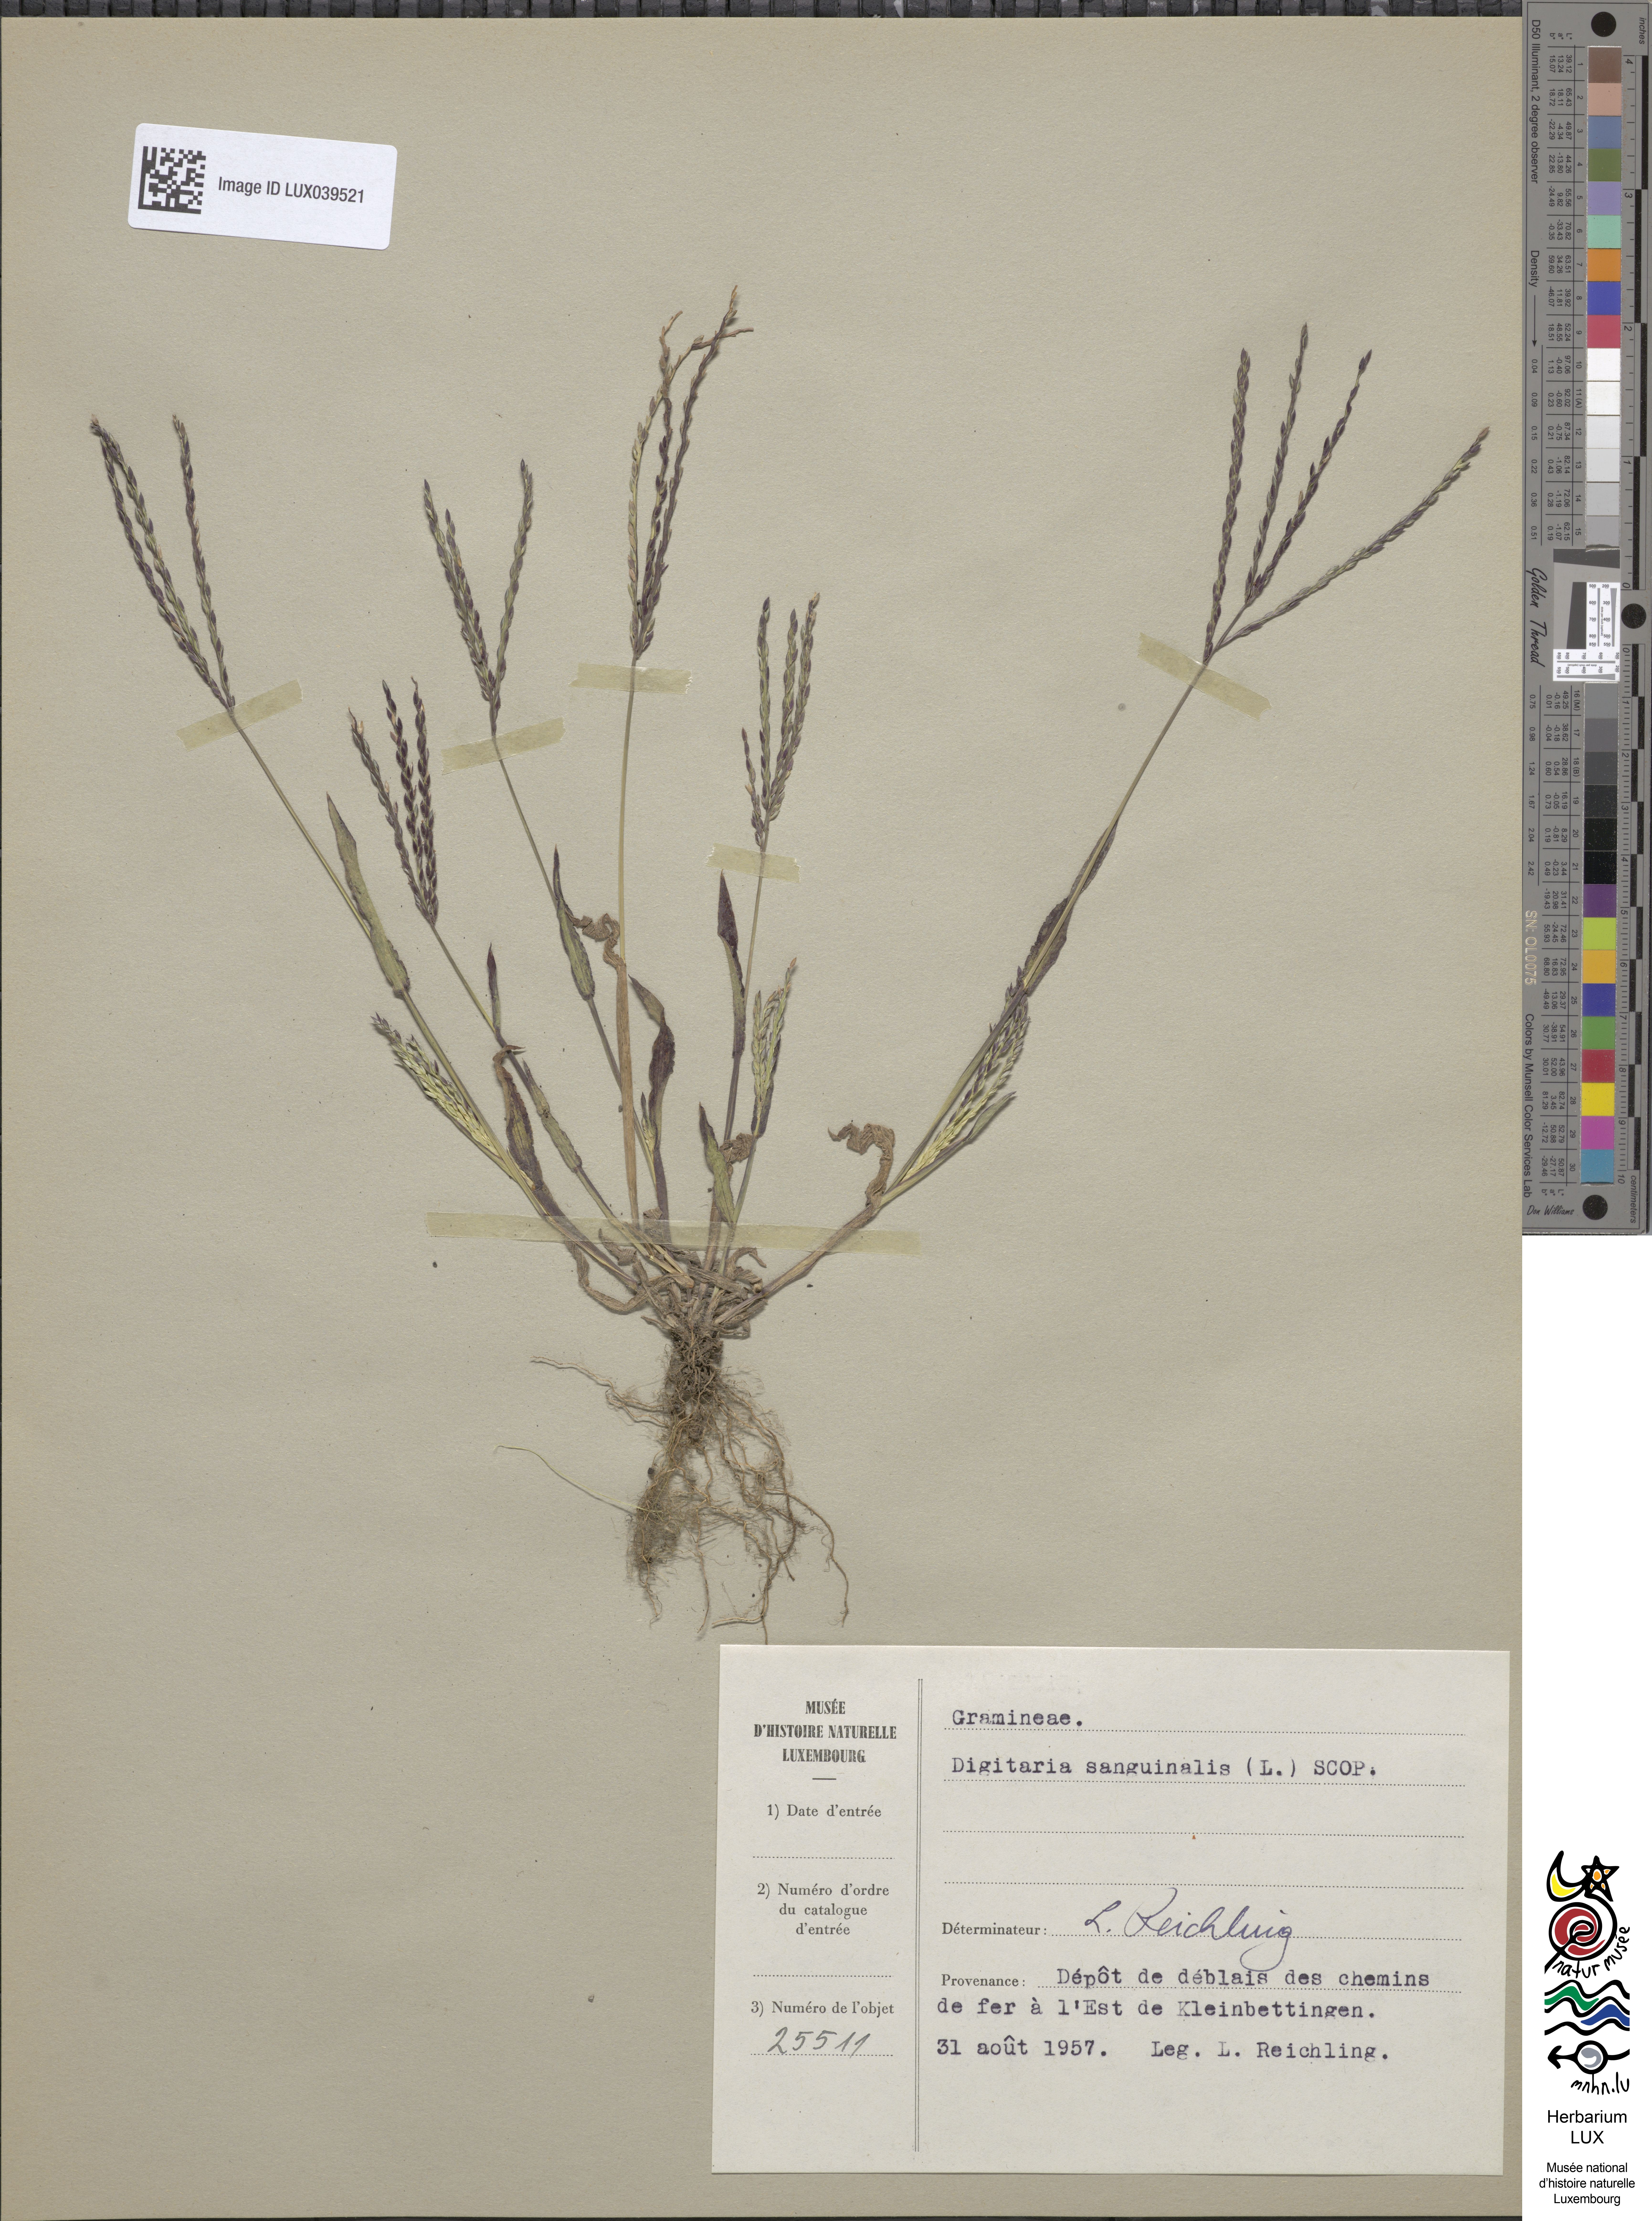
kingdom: Plantae
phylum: Tracheophyta
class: Liliopsida
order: Poales
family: Poaceae
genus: Digitaria
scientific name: Digitaria sanguinalis
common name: Hairy crabgrass
